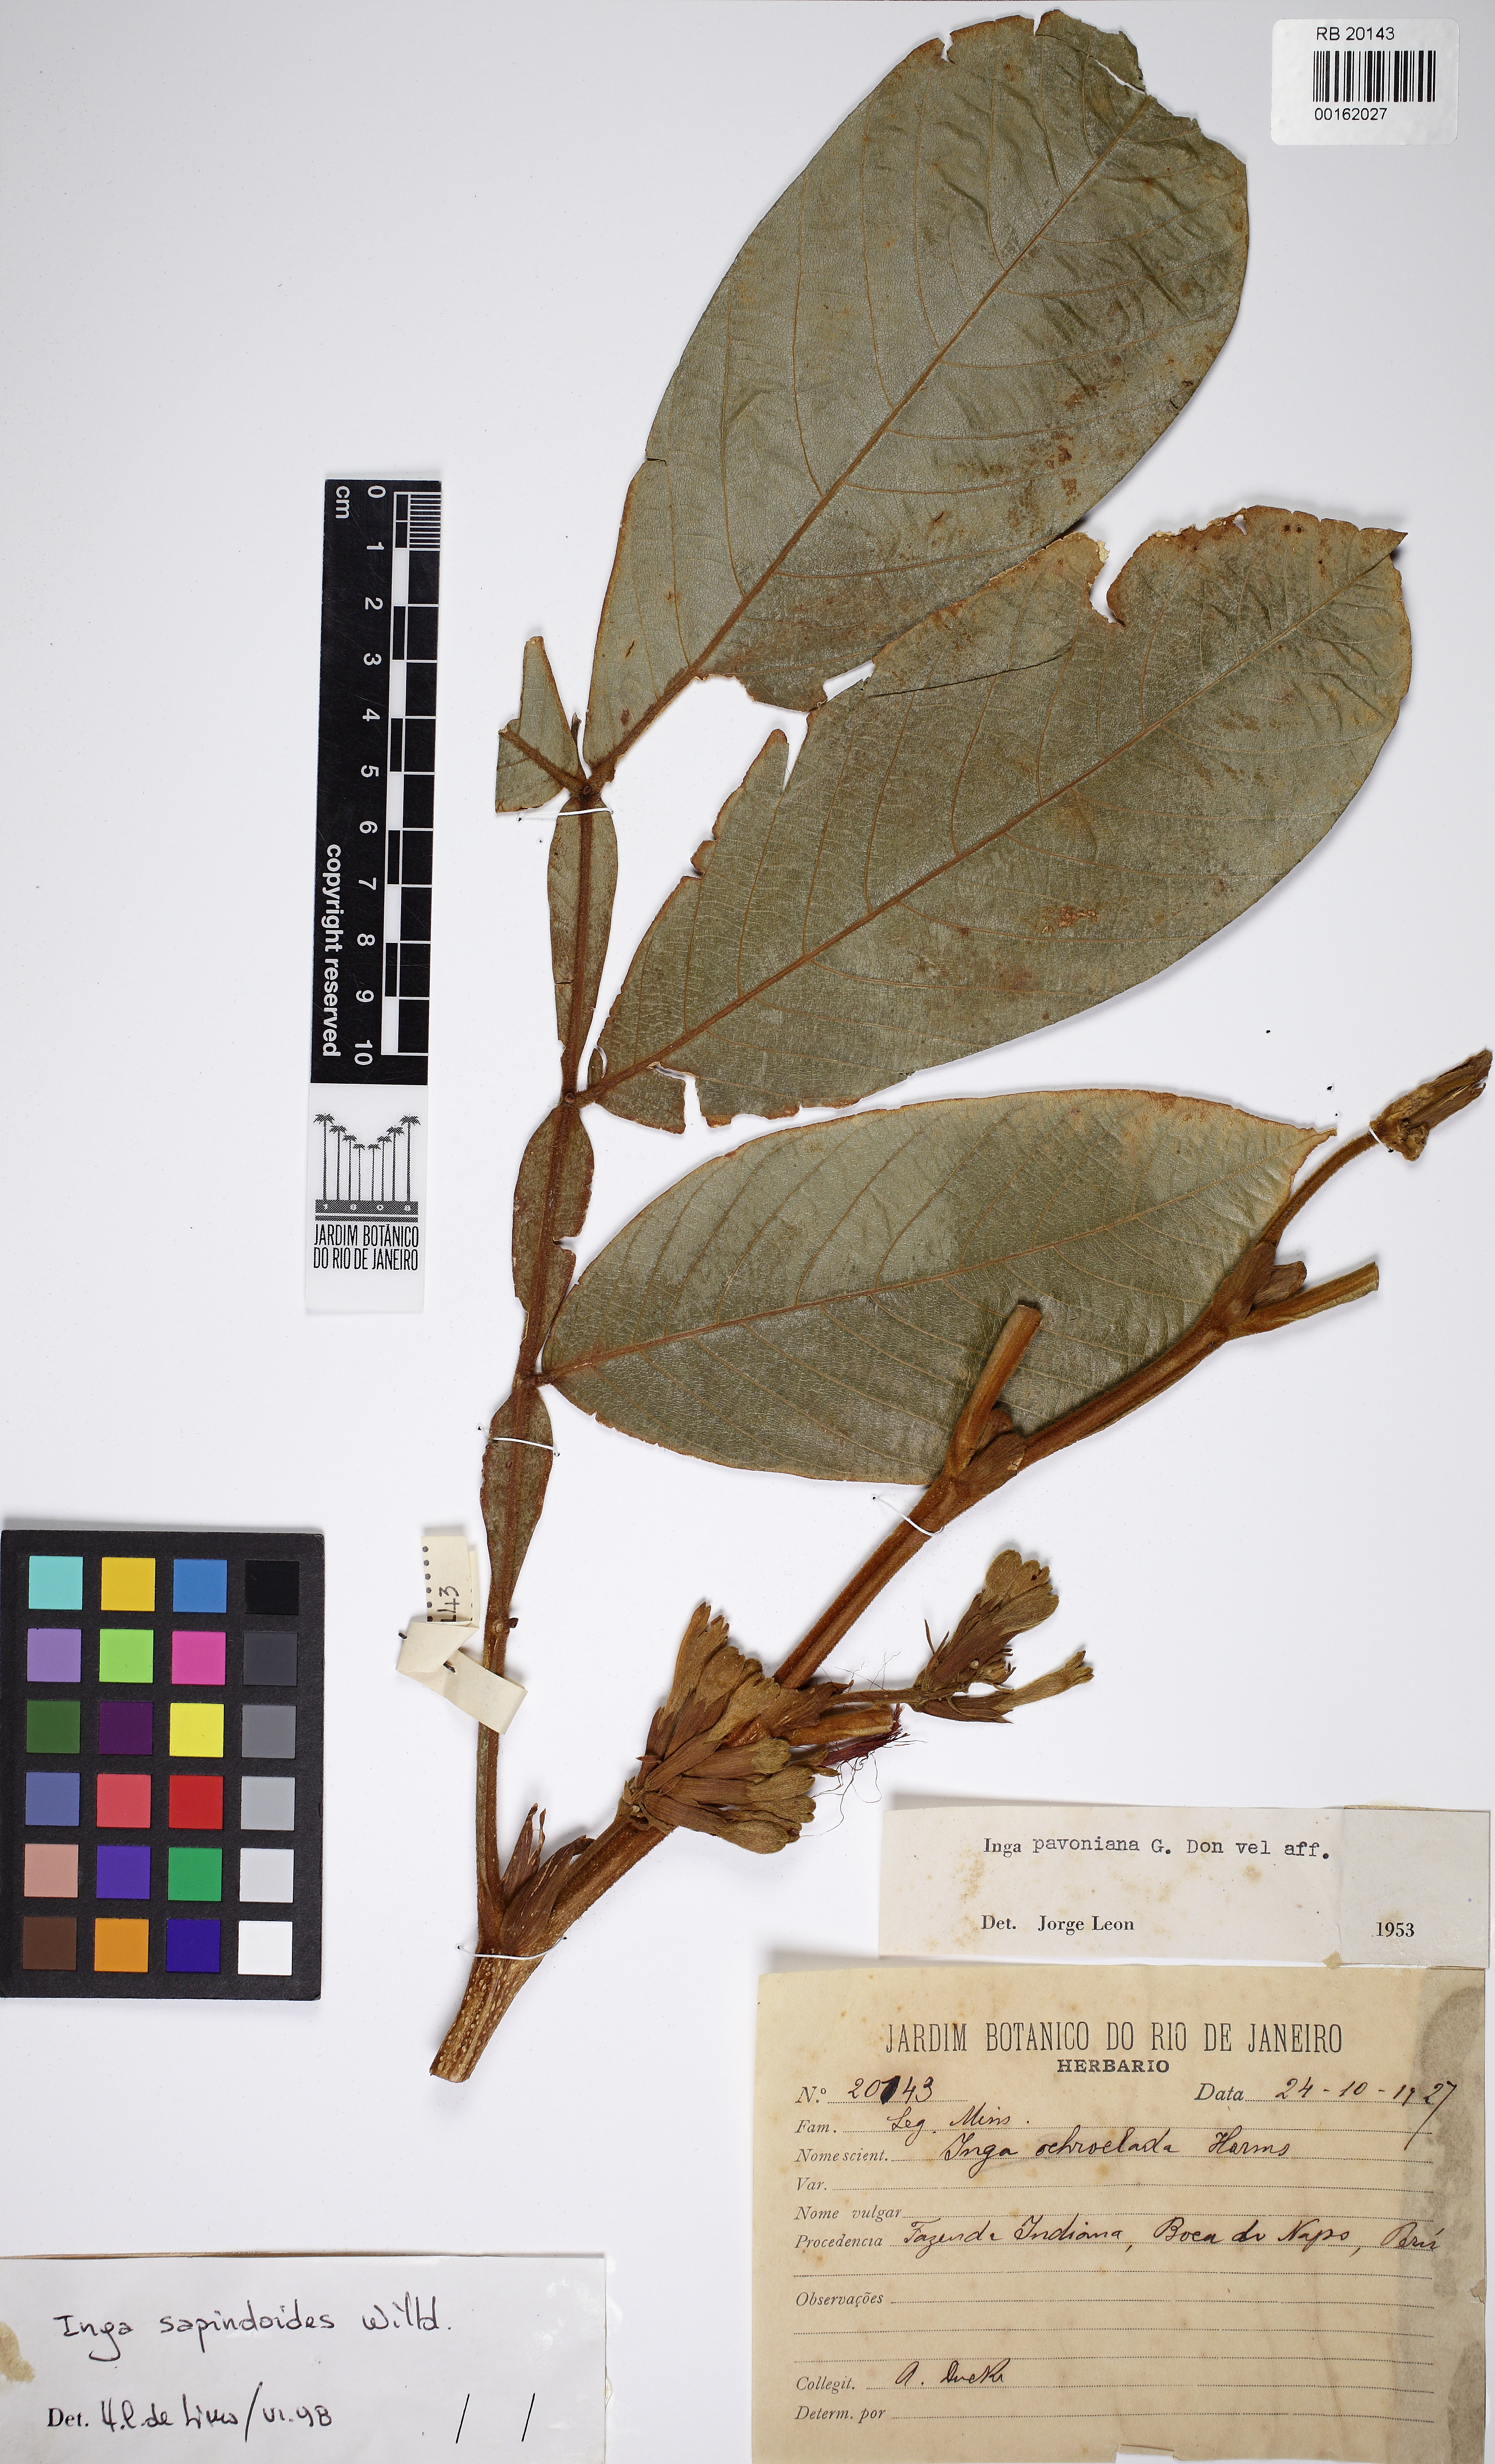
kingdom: Plantae
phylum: Tracheophyta
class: Magnoliopsida
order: Fabales
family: Fabaceae
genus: Inga
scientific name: Inga sapindoides
